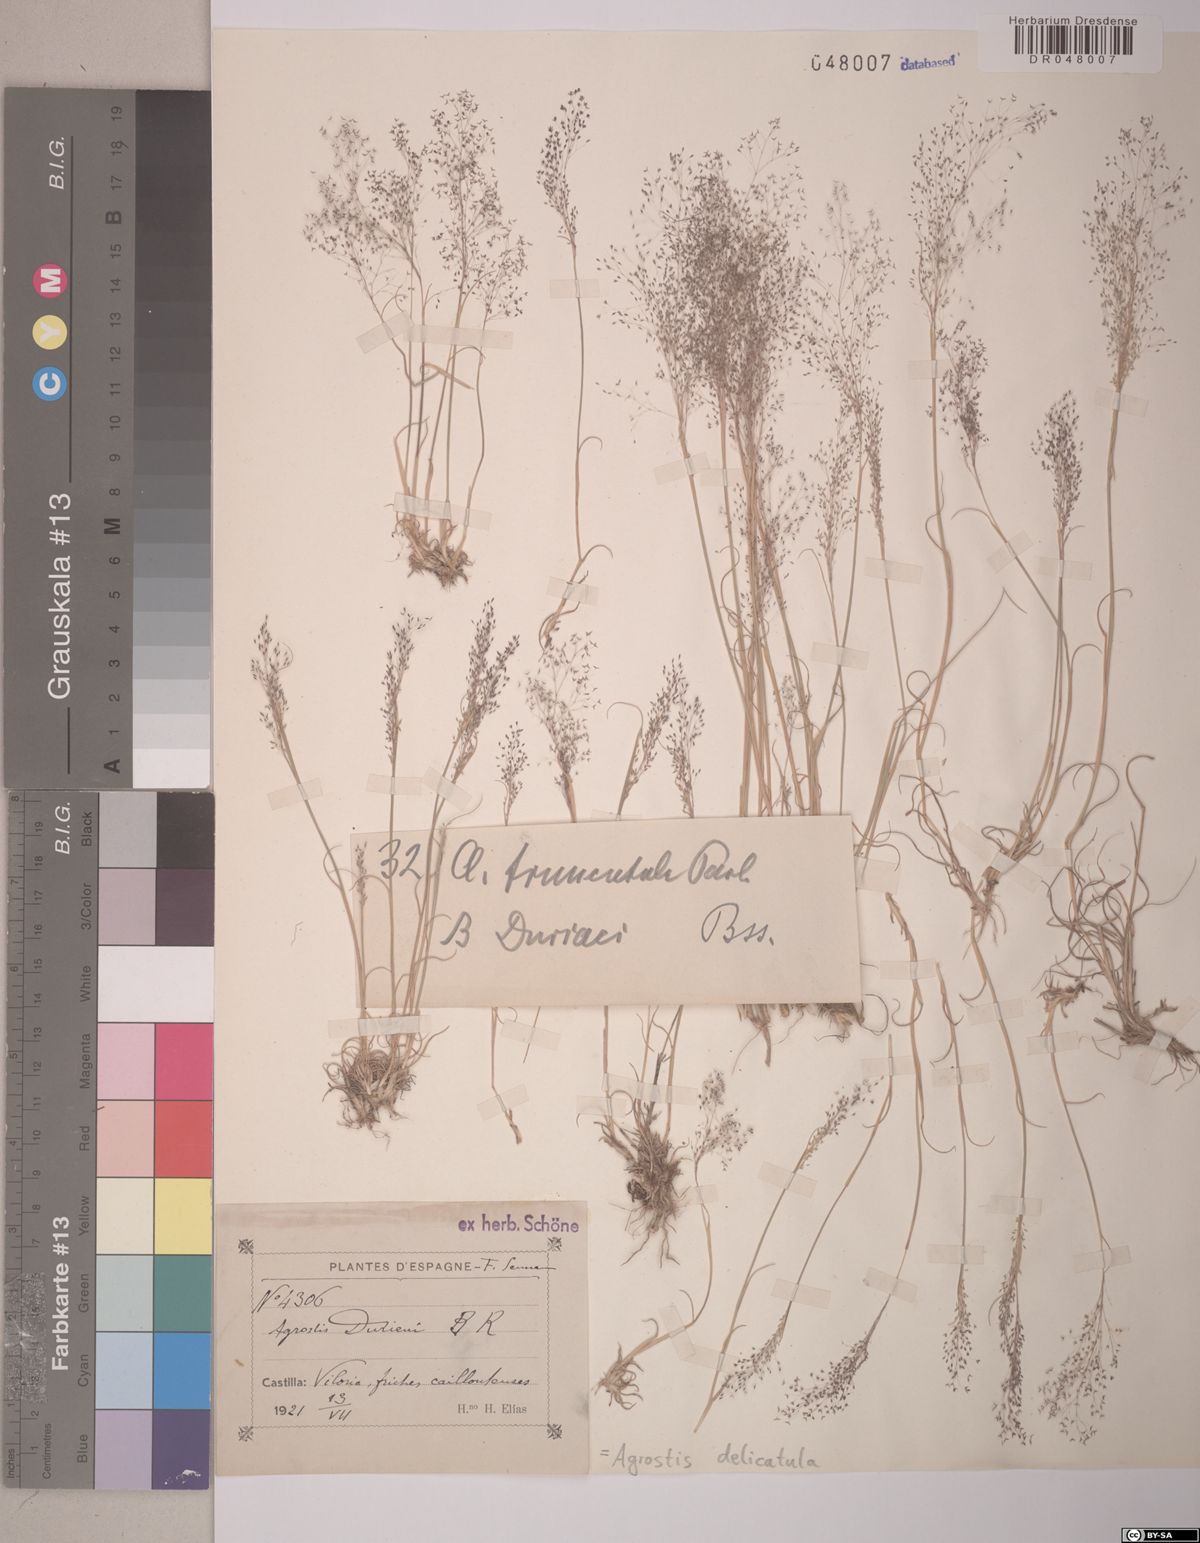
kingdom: Plantae
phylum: Tracheophyta
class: Liliopsida
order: Poales
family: Poaceae
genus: Agrostis
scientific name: Agrostis castellana
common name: Highland bent
